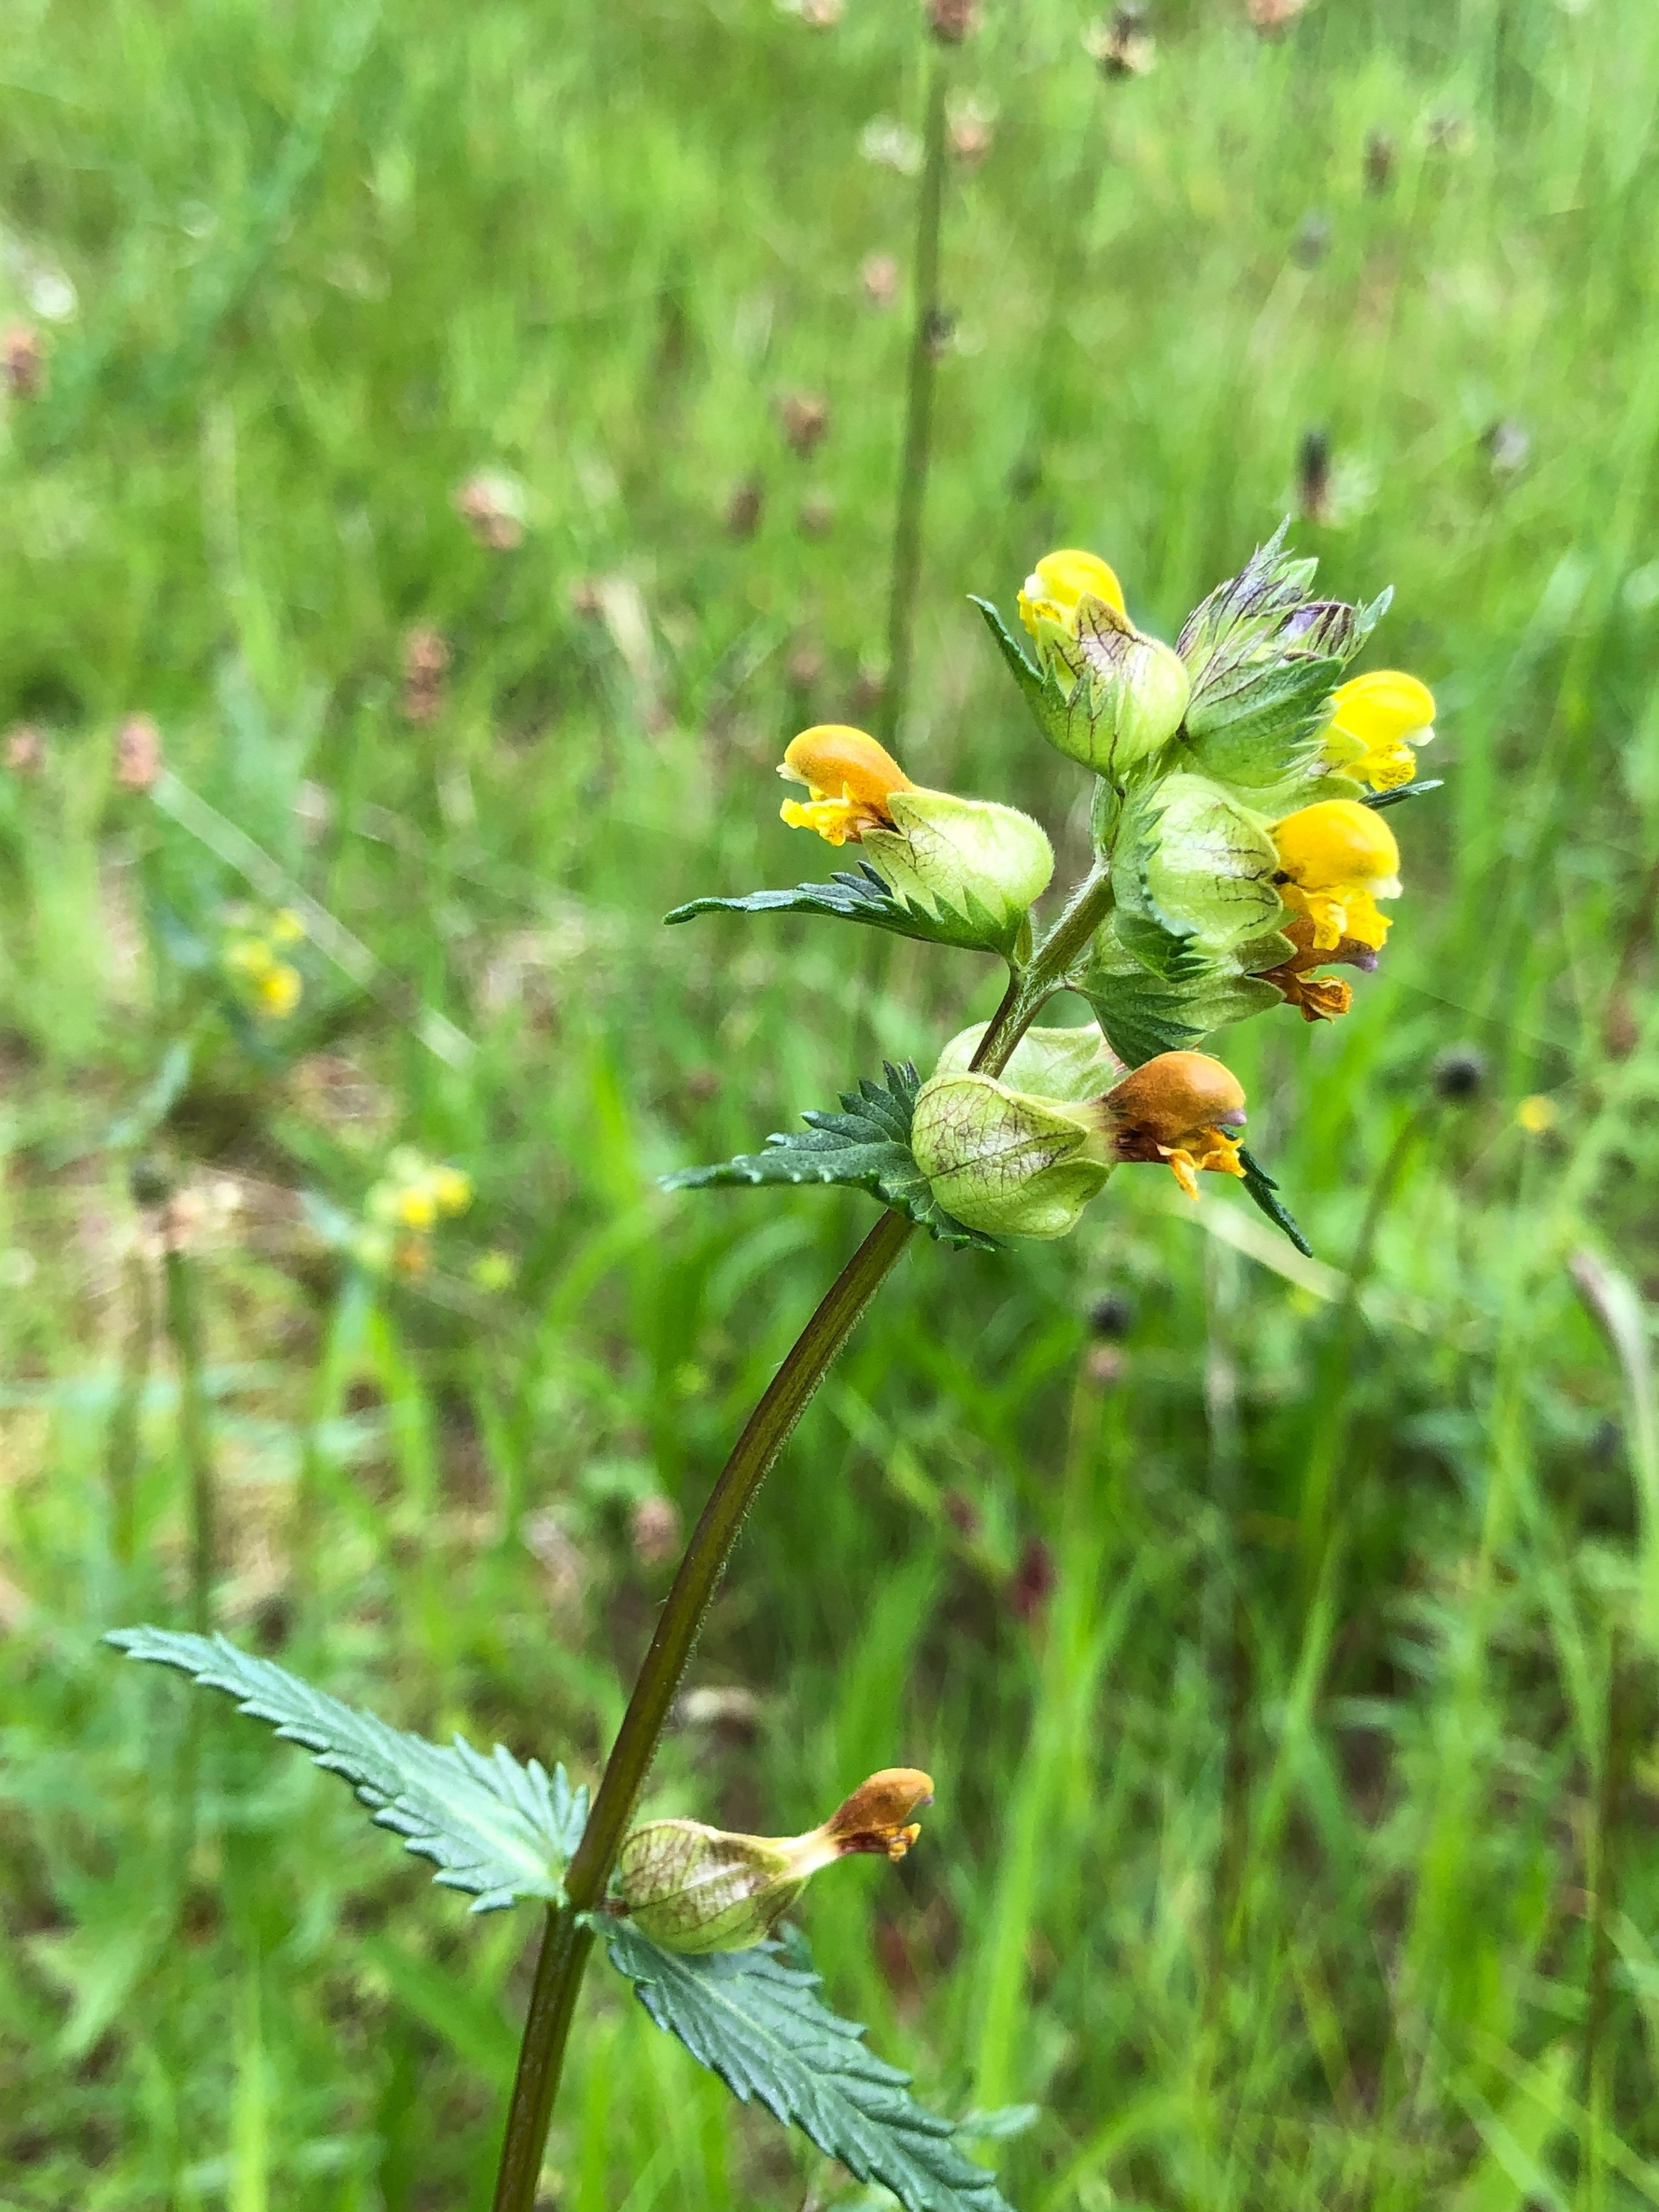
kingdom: Plantae
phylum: Tracheophyta
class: Magnoliopsida
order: Lamiales
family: Orobanchaceae
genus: Rhinanthus
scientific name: Rhinanthus minor
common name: Liden skjaller
